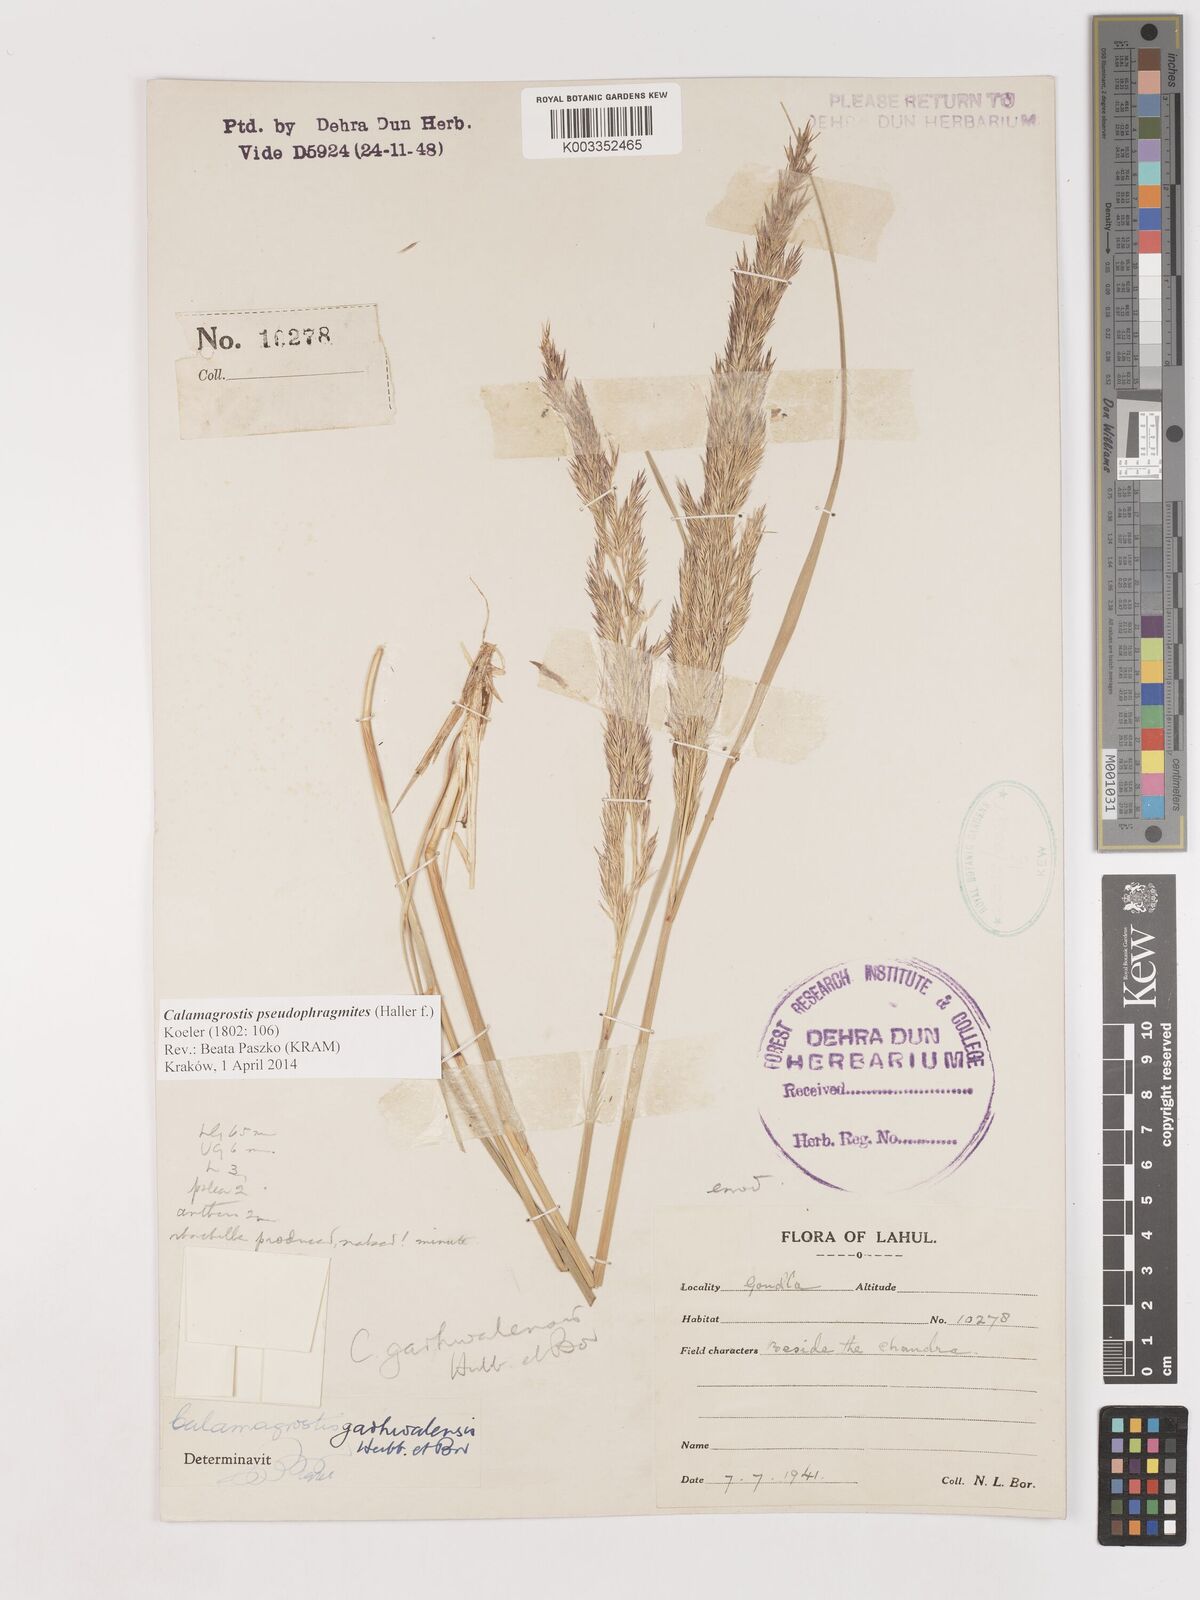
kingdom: Plantae
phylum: Tracheophyta
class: Liliopsida
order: Poales
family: Poaceae
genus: Calamagrostis
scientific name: Calamagrostis pseudophragmites
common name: Coastal small-reed
